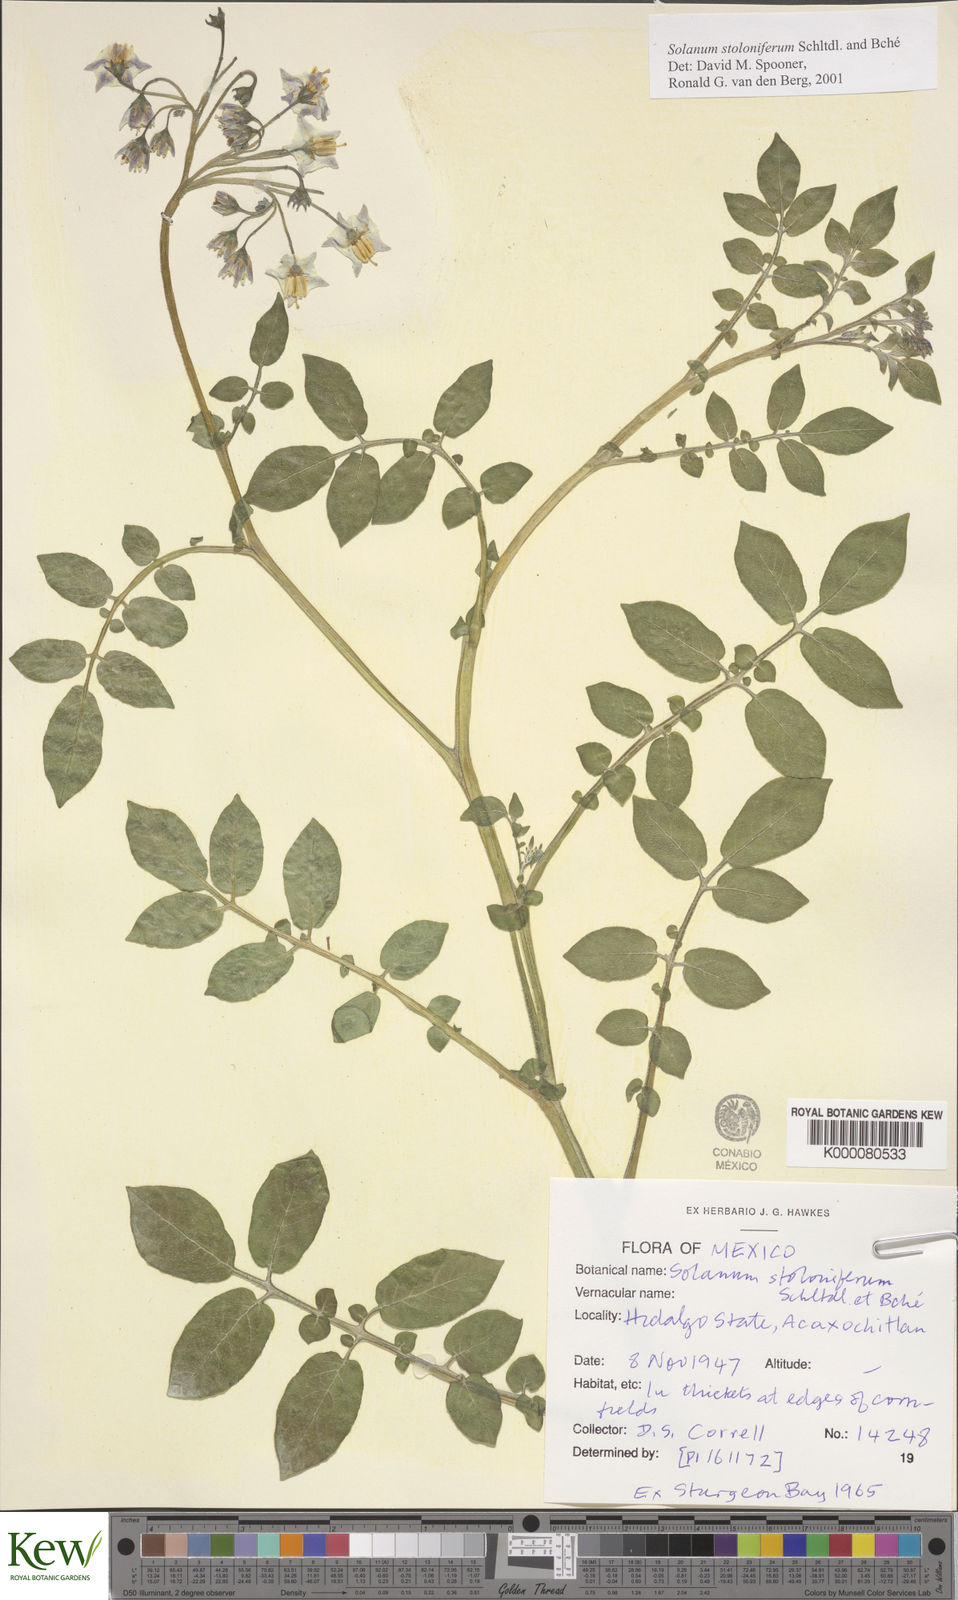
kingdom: Plantae
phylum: Tracheophyta
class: Magnoliopsida
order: Solanales
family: Solanaceae
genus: Solanum
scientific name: Solanum stoloniferum
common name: Fendler's nighshade
